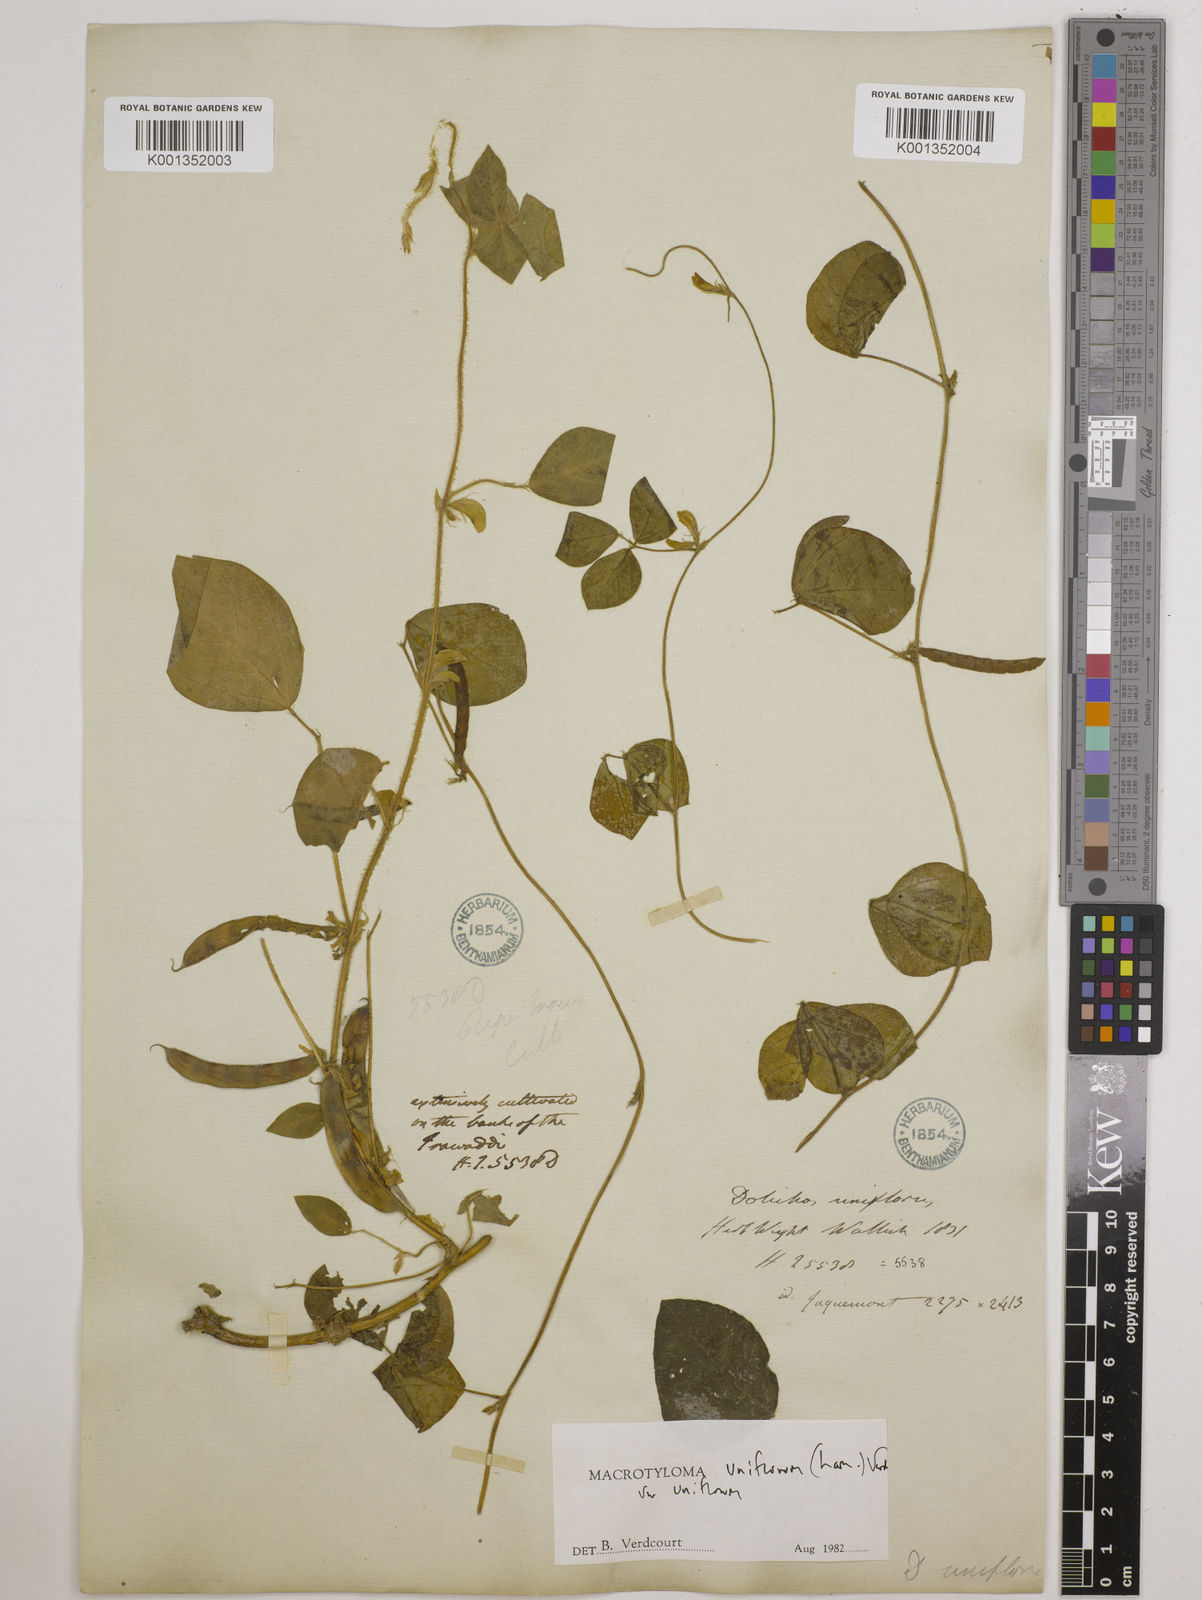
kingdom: Plantae
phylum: Tracheophyta
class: Magnoliopsida
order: Fabales
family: Fabaceae
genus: Macrotyloma
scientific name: Macrotyloma uniflorum
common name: Horse gram
